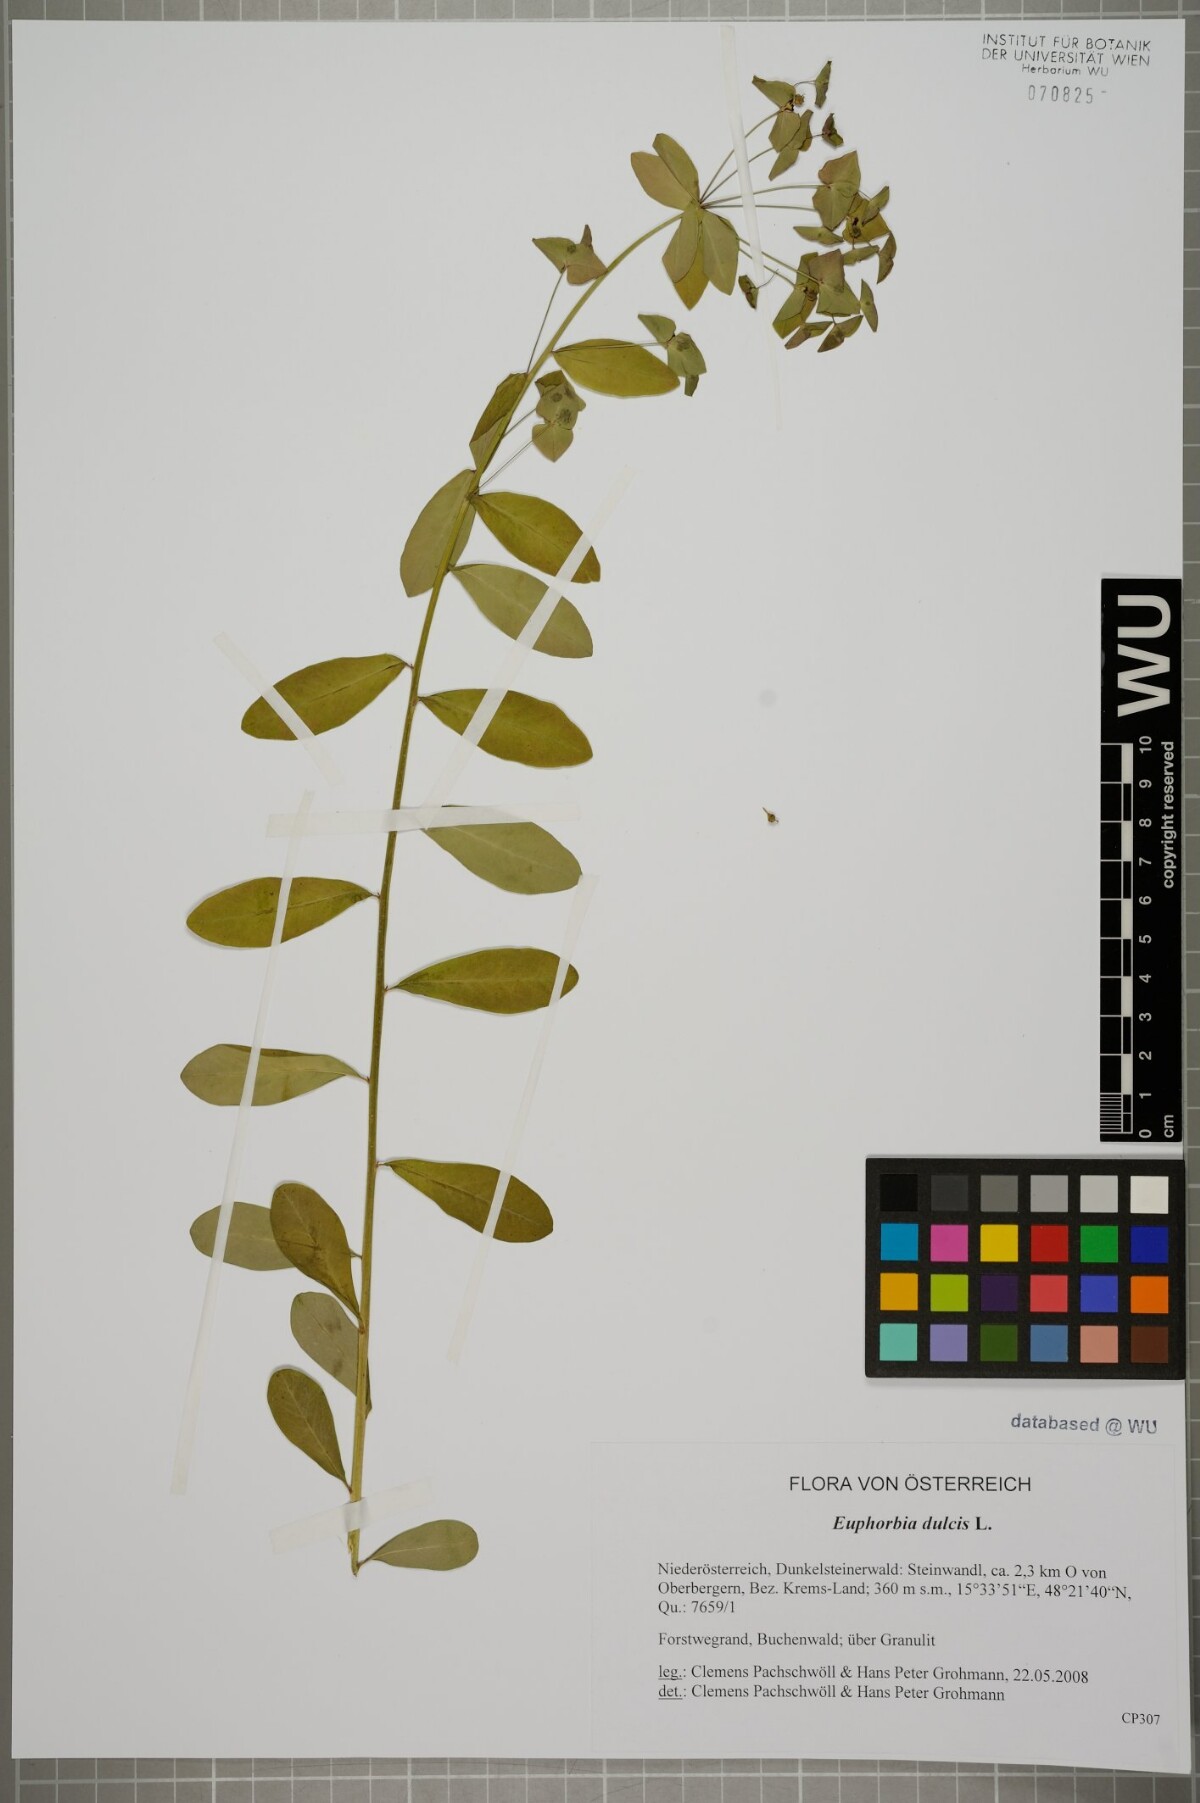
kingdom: Plantae
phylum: Tracheophyta
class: Magnoliopsida
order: Malpighiales
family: Euphorbiaceae
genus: Euphorbia
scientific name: Euphorbia dulcis
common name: Sweet spurge
